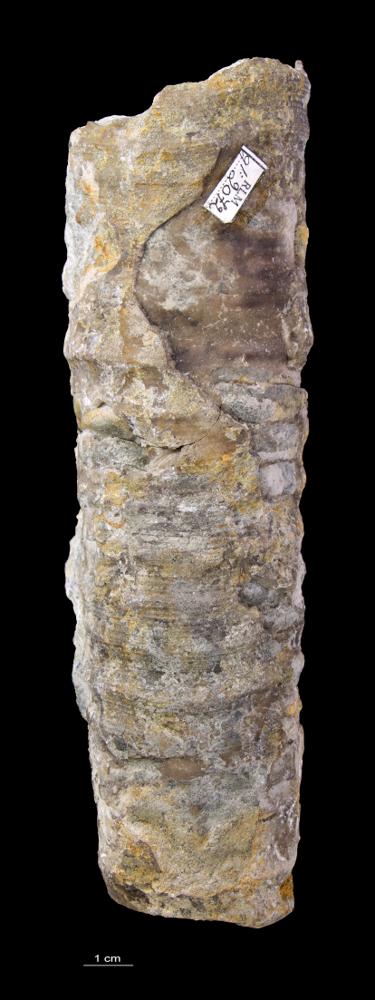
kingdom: Animalia
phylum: Mollusca
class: Cephalopoda
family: Endoceratidae
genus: Endoceras
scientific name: Endoceras
